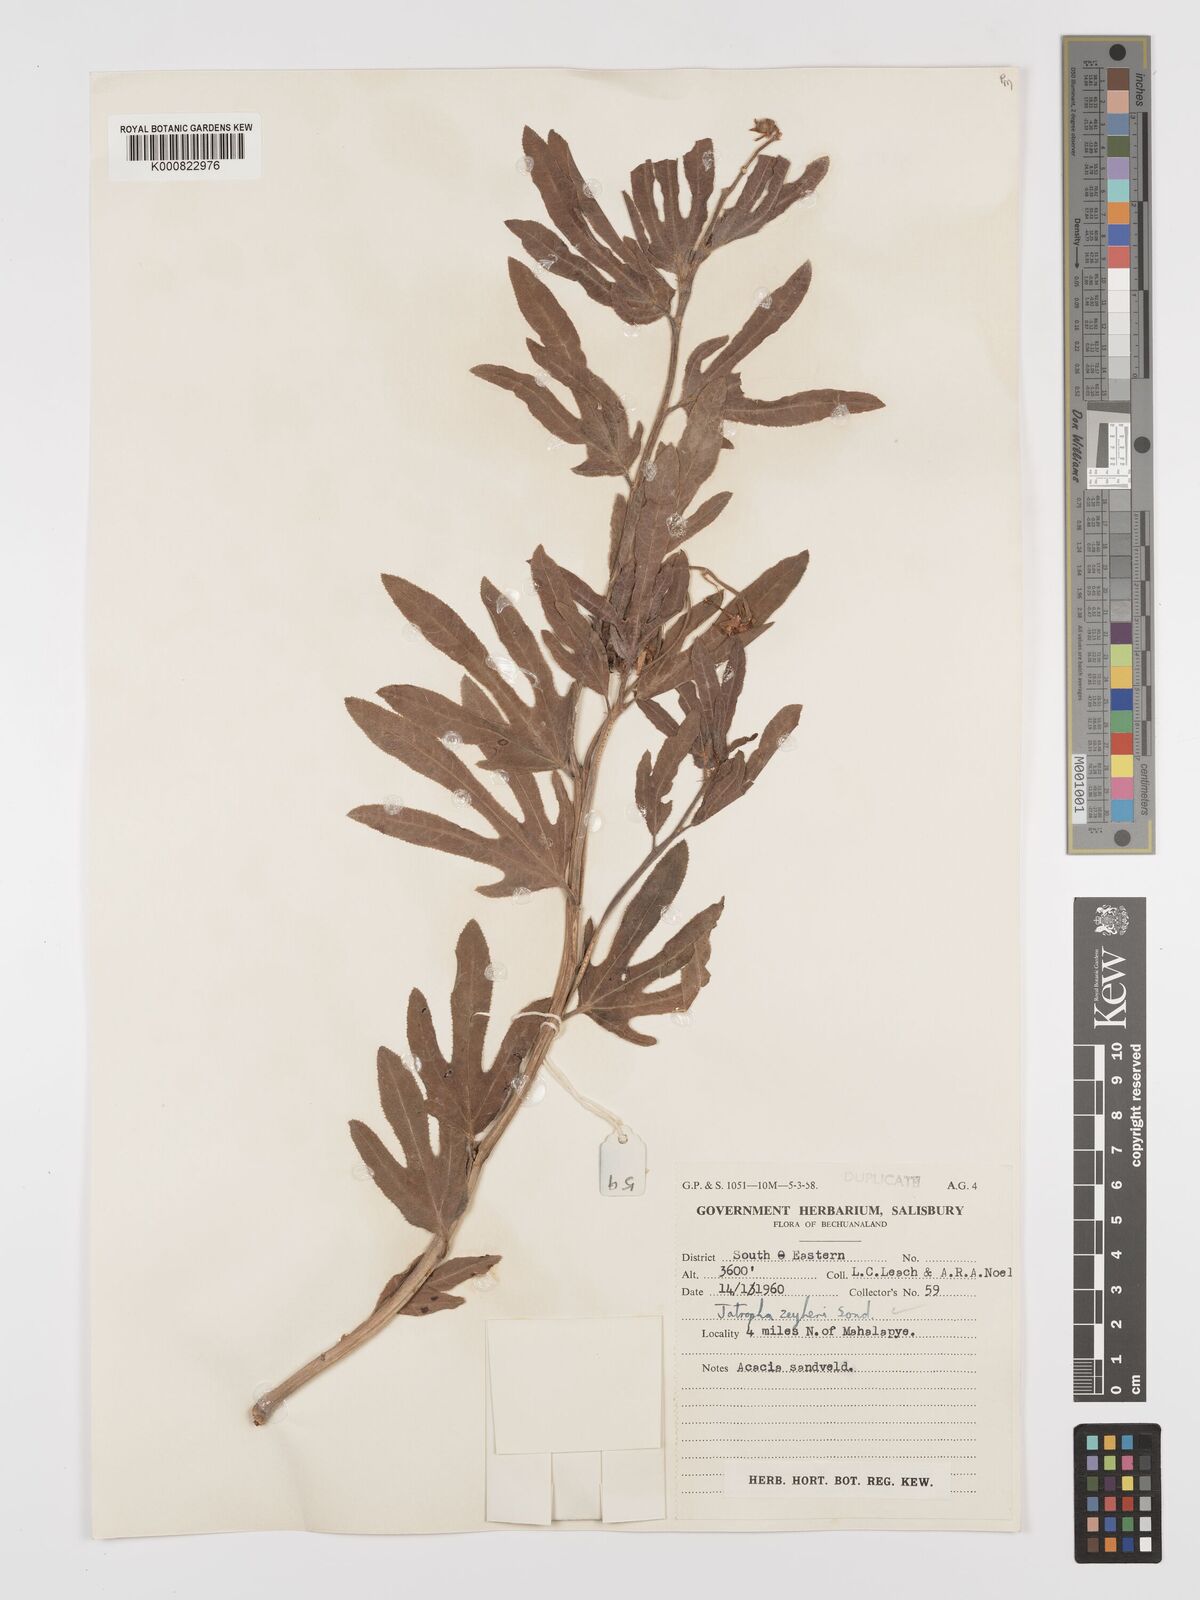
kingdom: Plantae
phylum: Tracheophyta
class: Magnoliopsida
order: Malpighiales
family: Euphorbiaceae
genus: Jatropha
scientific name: Jatropha zeyheri
